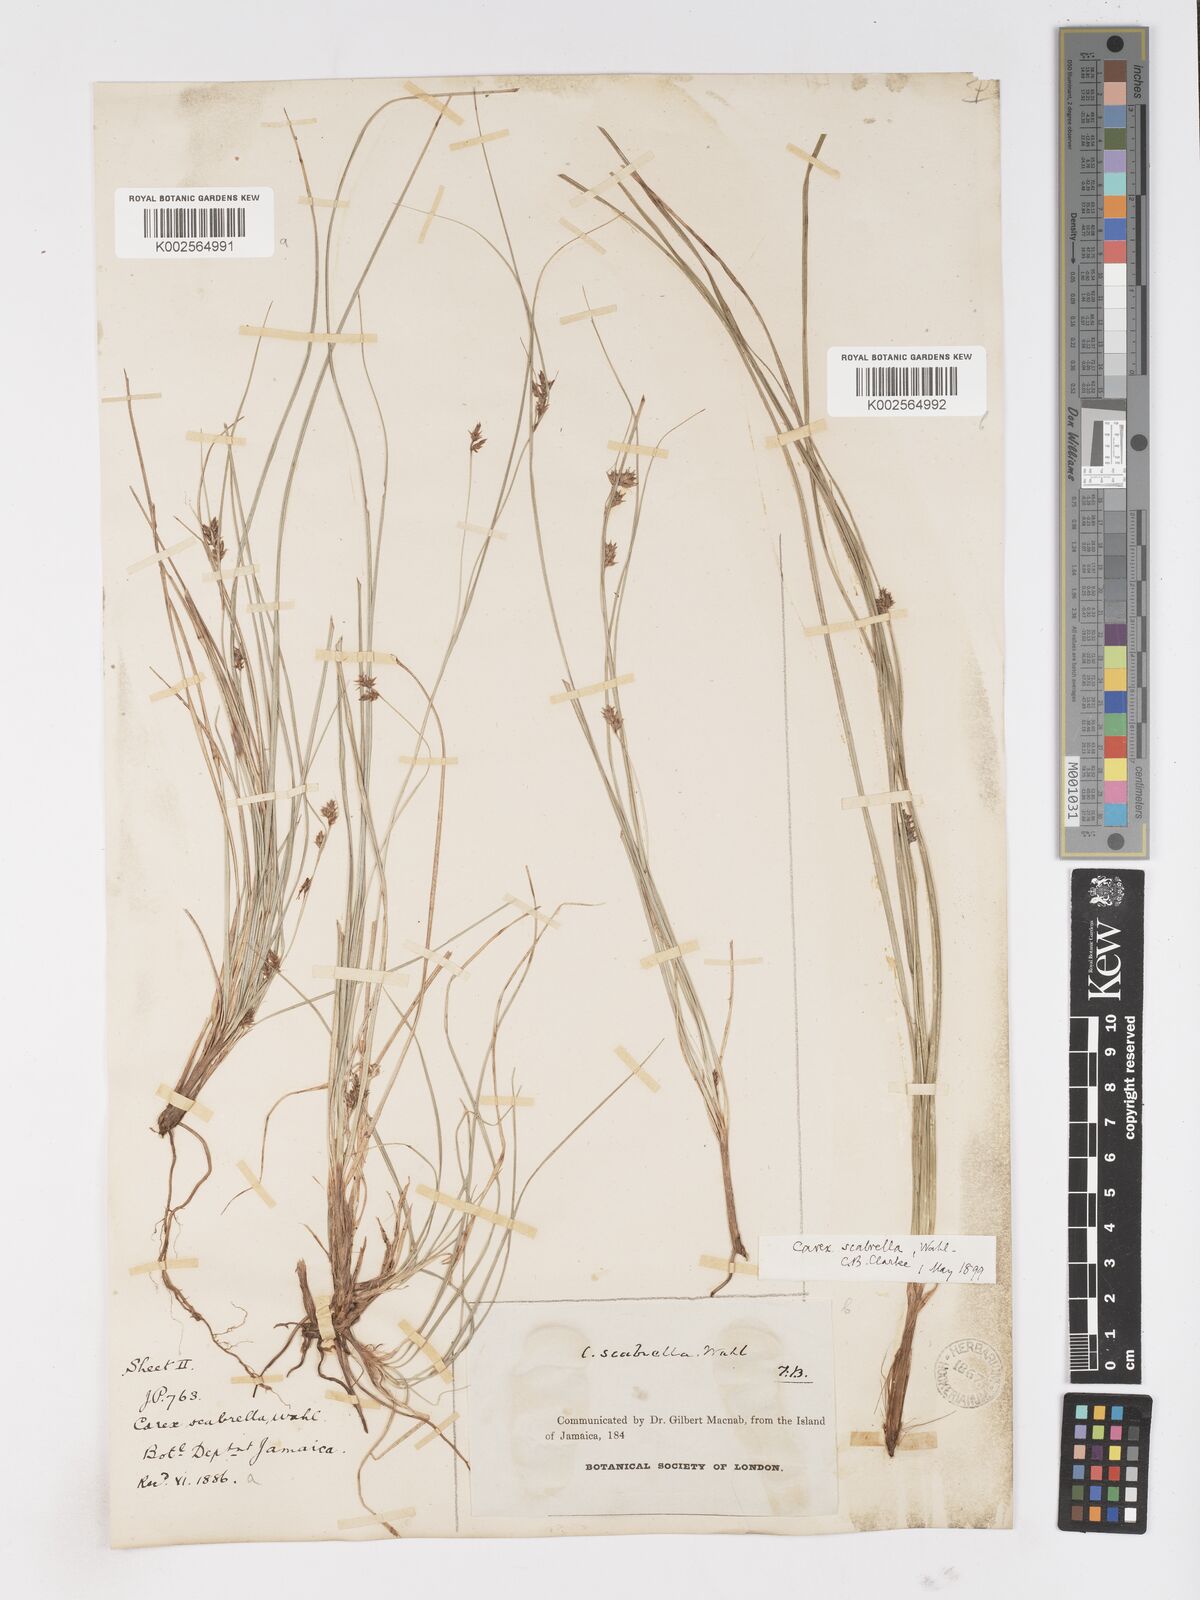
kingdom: Plantae
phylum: Tracheophyta
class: Liliopsida
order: Poales
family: Cyperaceae
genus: Carex
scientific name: Carex
